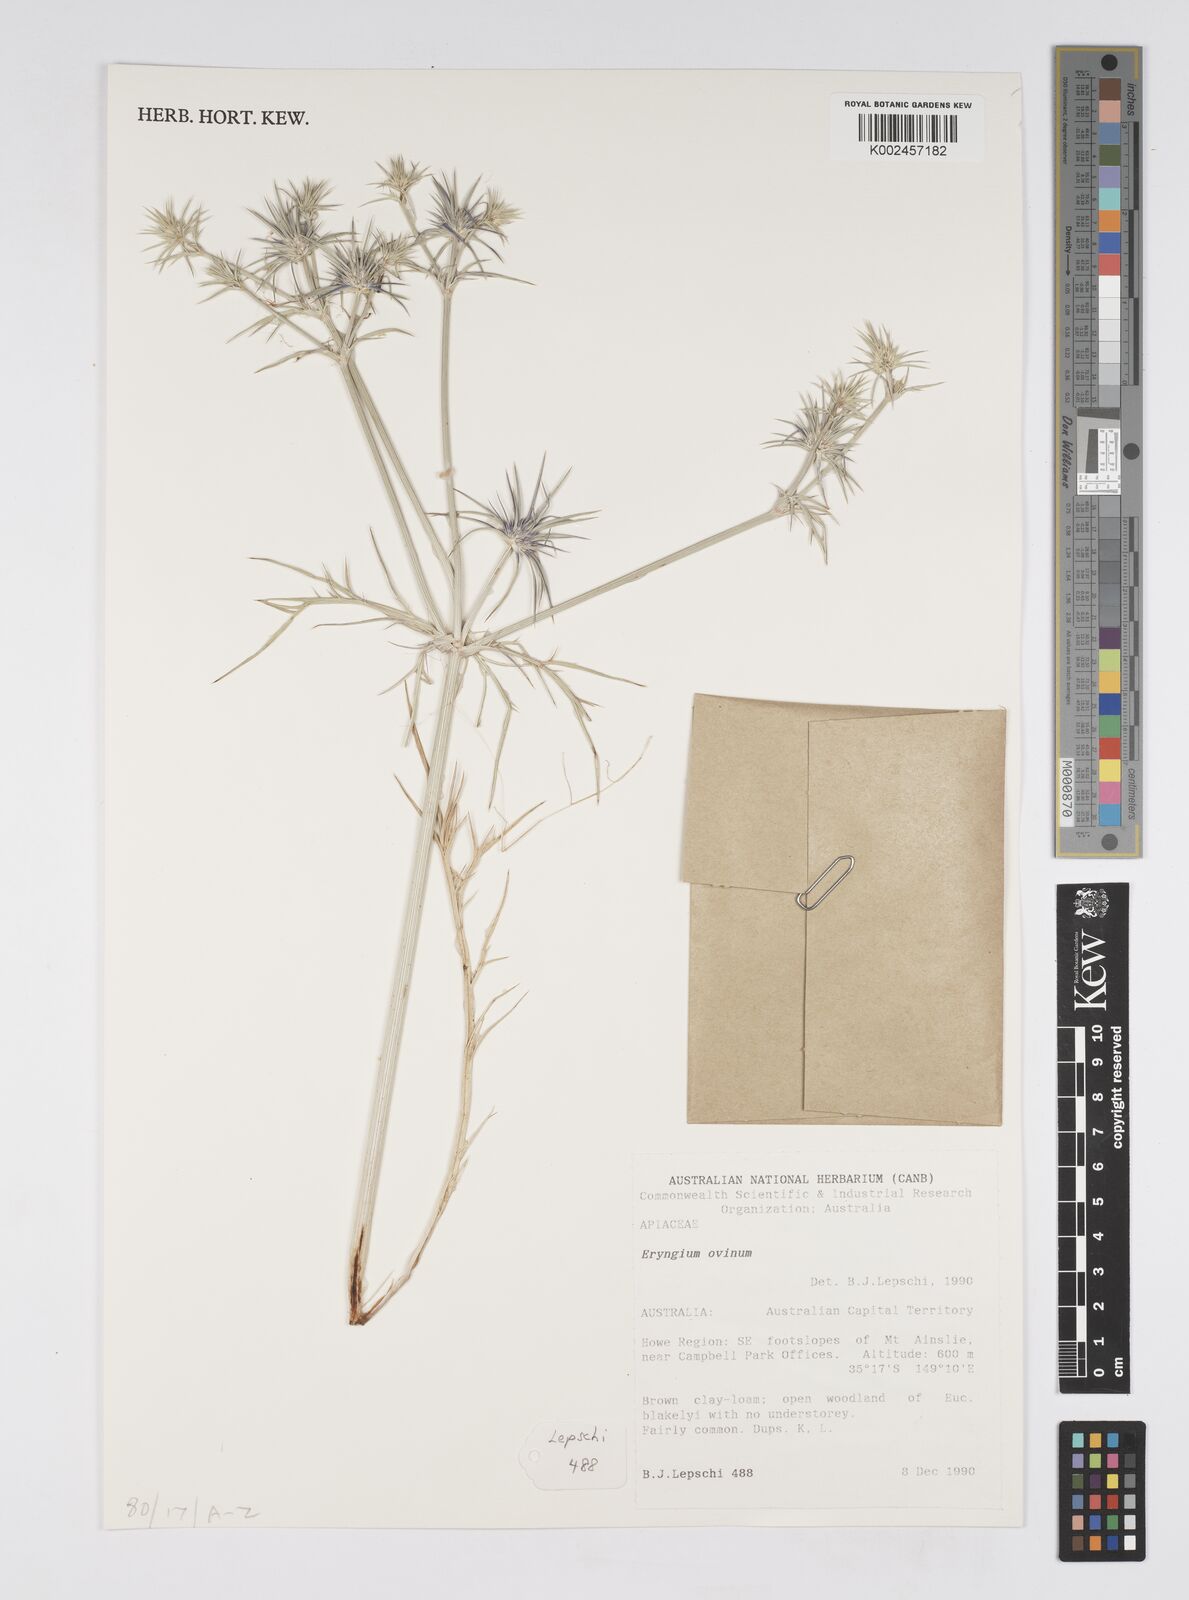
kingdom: Plantae
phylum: Tracheophyta
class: Magnoliopsida
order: Apiales
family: Apiaceae
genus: Eryngium
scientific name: Eryngium ovinum
